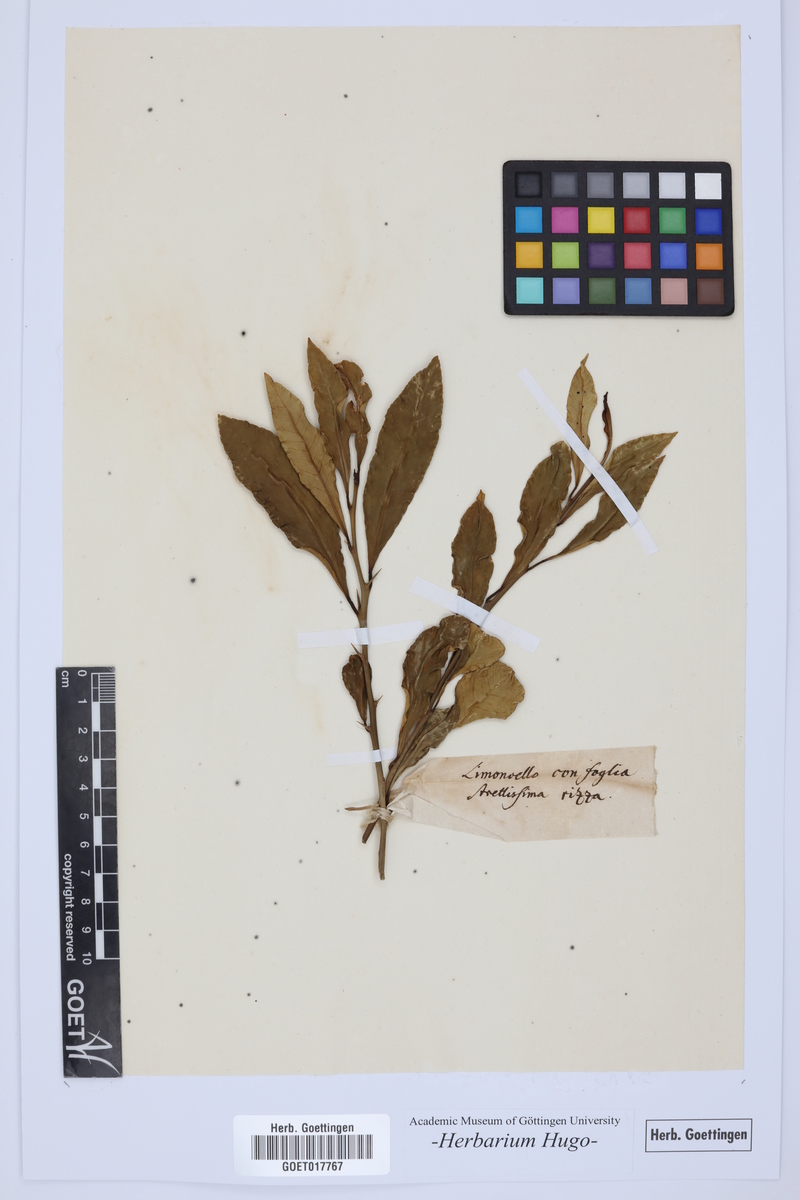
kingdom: Plantae
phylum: Tracheophyta
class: Magnoliopsida
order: Sapindales
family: Rutaceae
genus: Citrus
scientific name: Citrus
